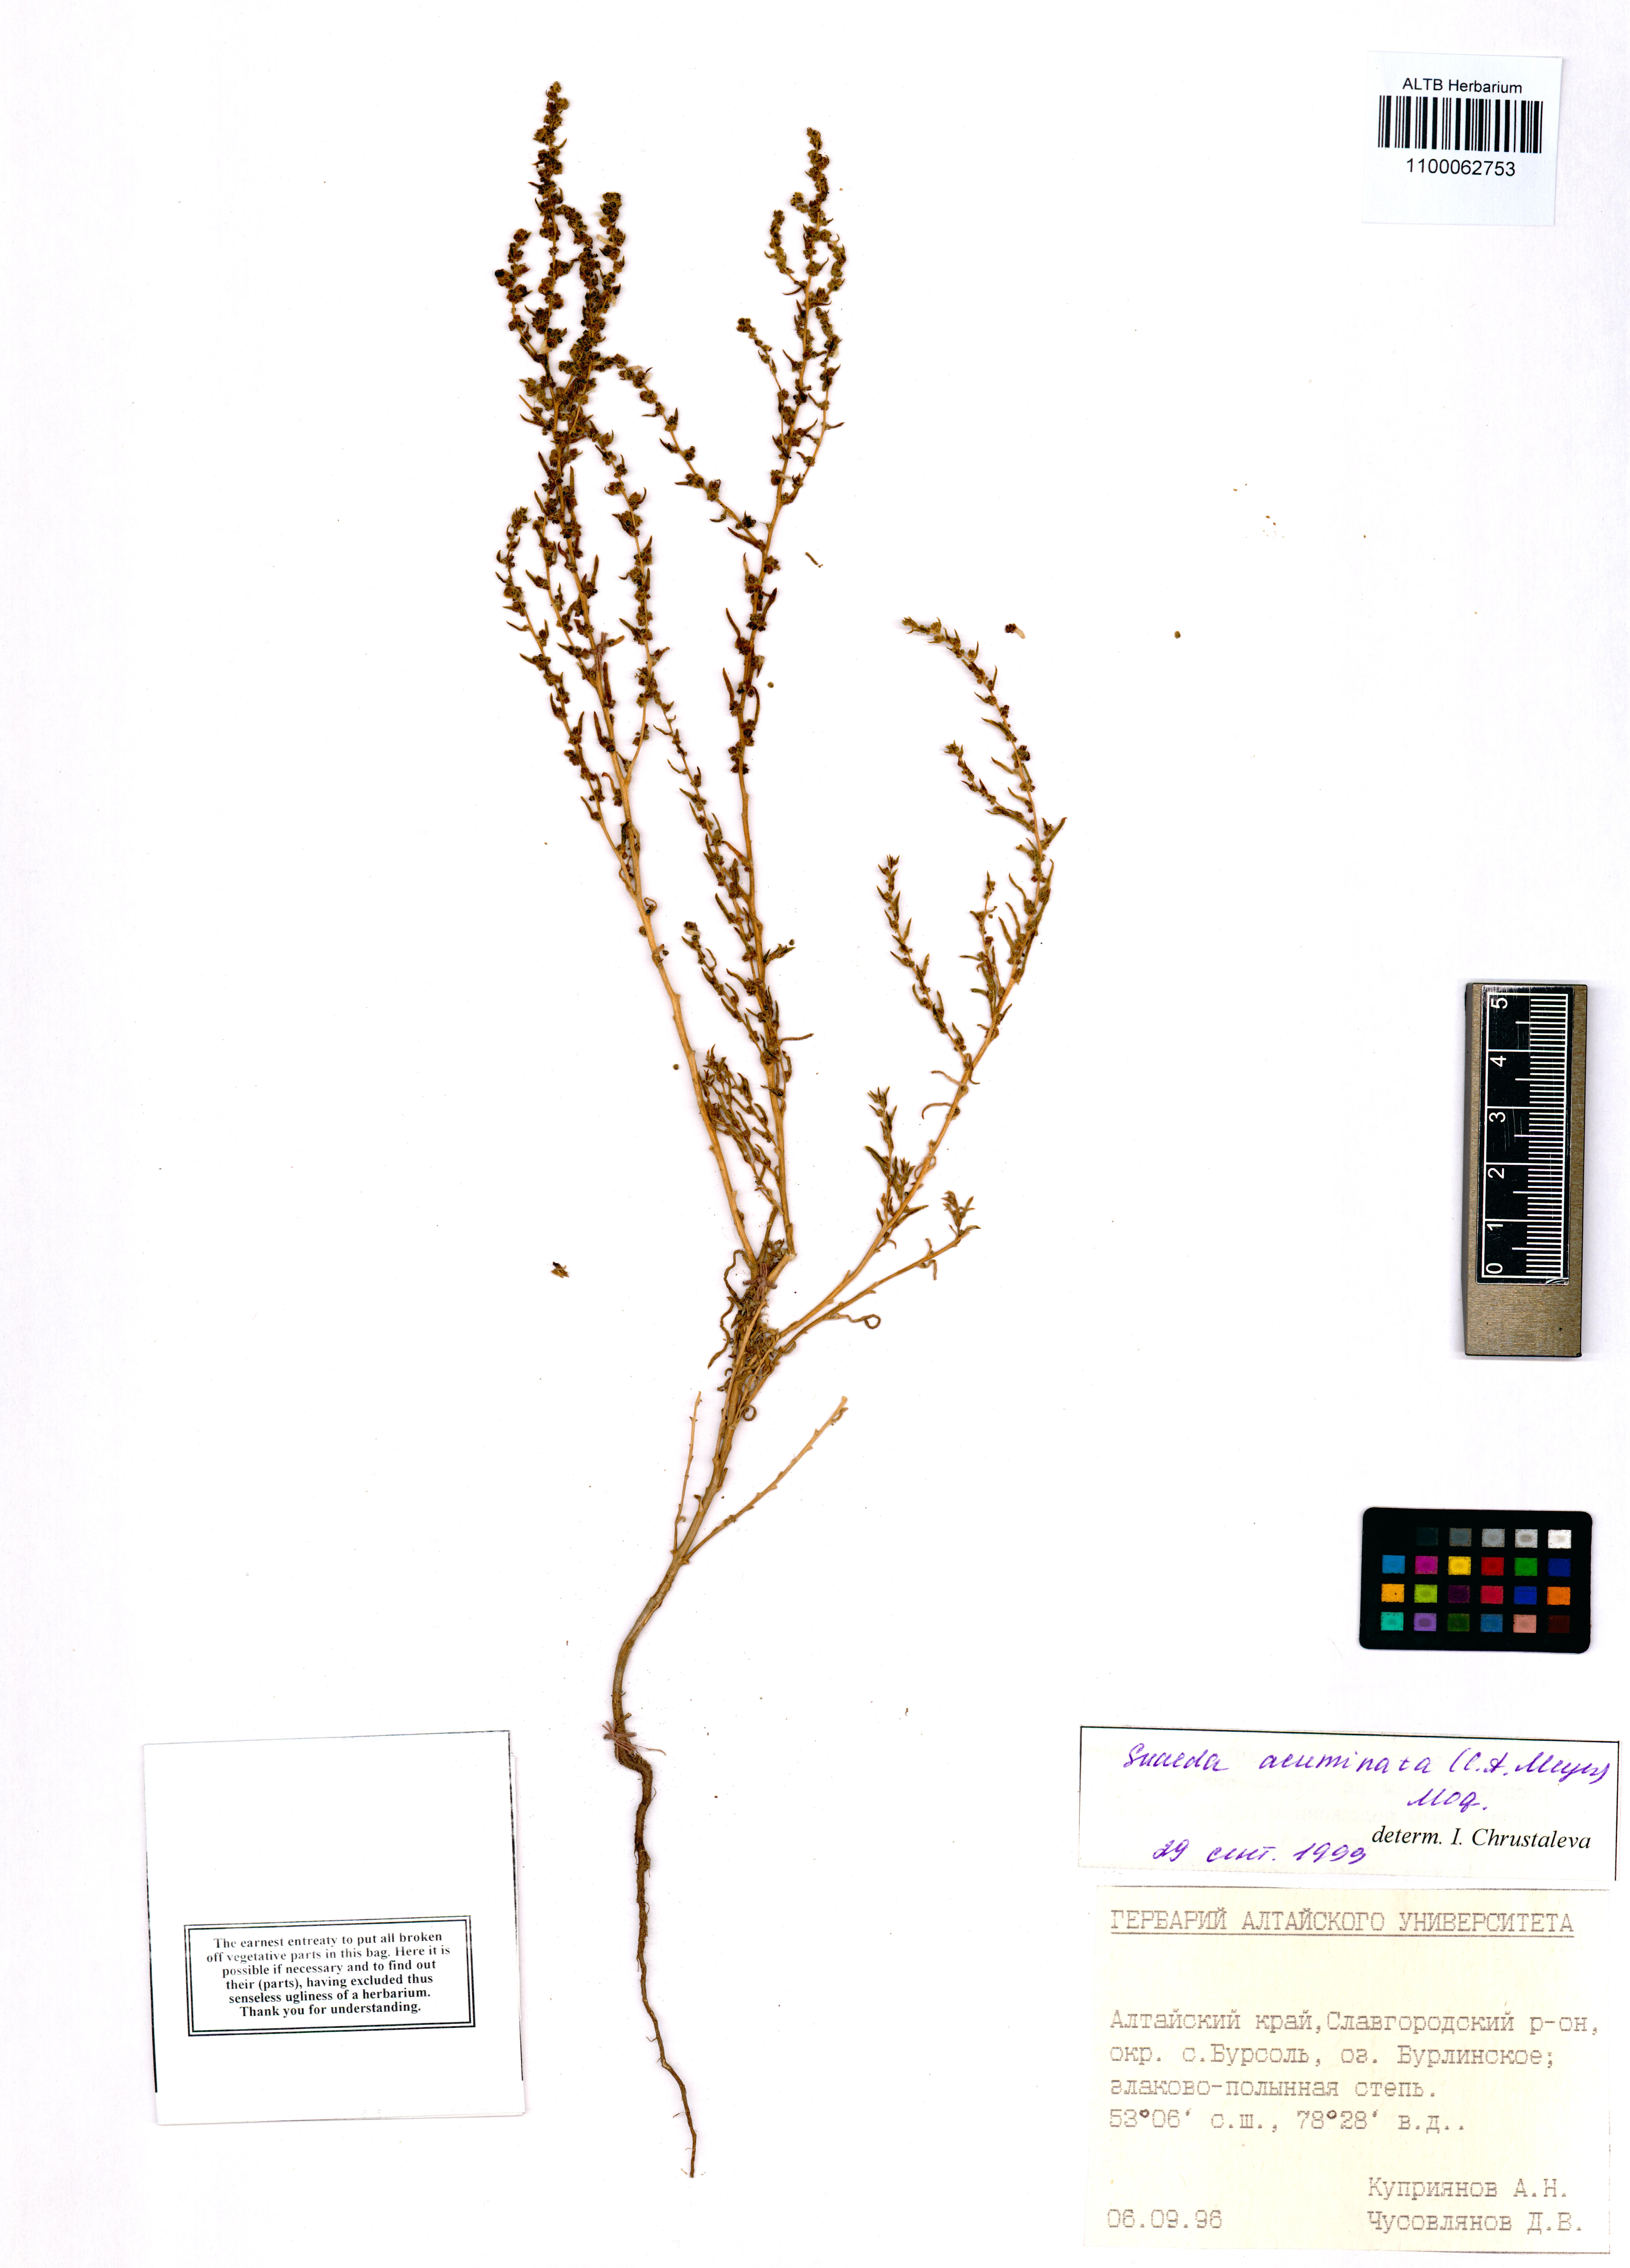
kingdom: Plantae
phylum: Tracheophyta
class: Magnoliopsida
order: Caryophyllales
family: Amaranthaceae
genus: Suaeda
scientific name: Suaeda acuminata
